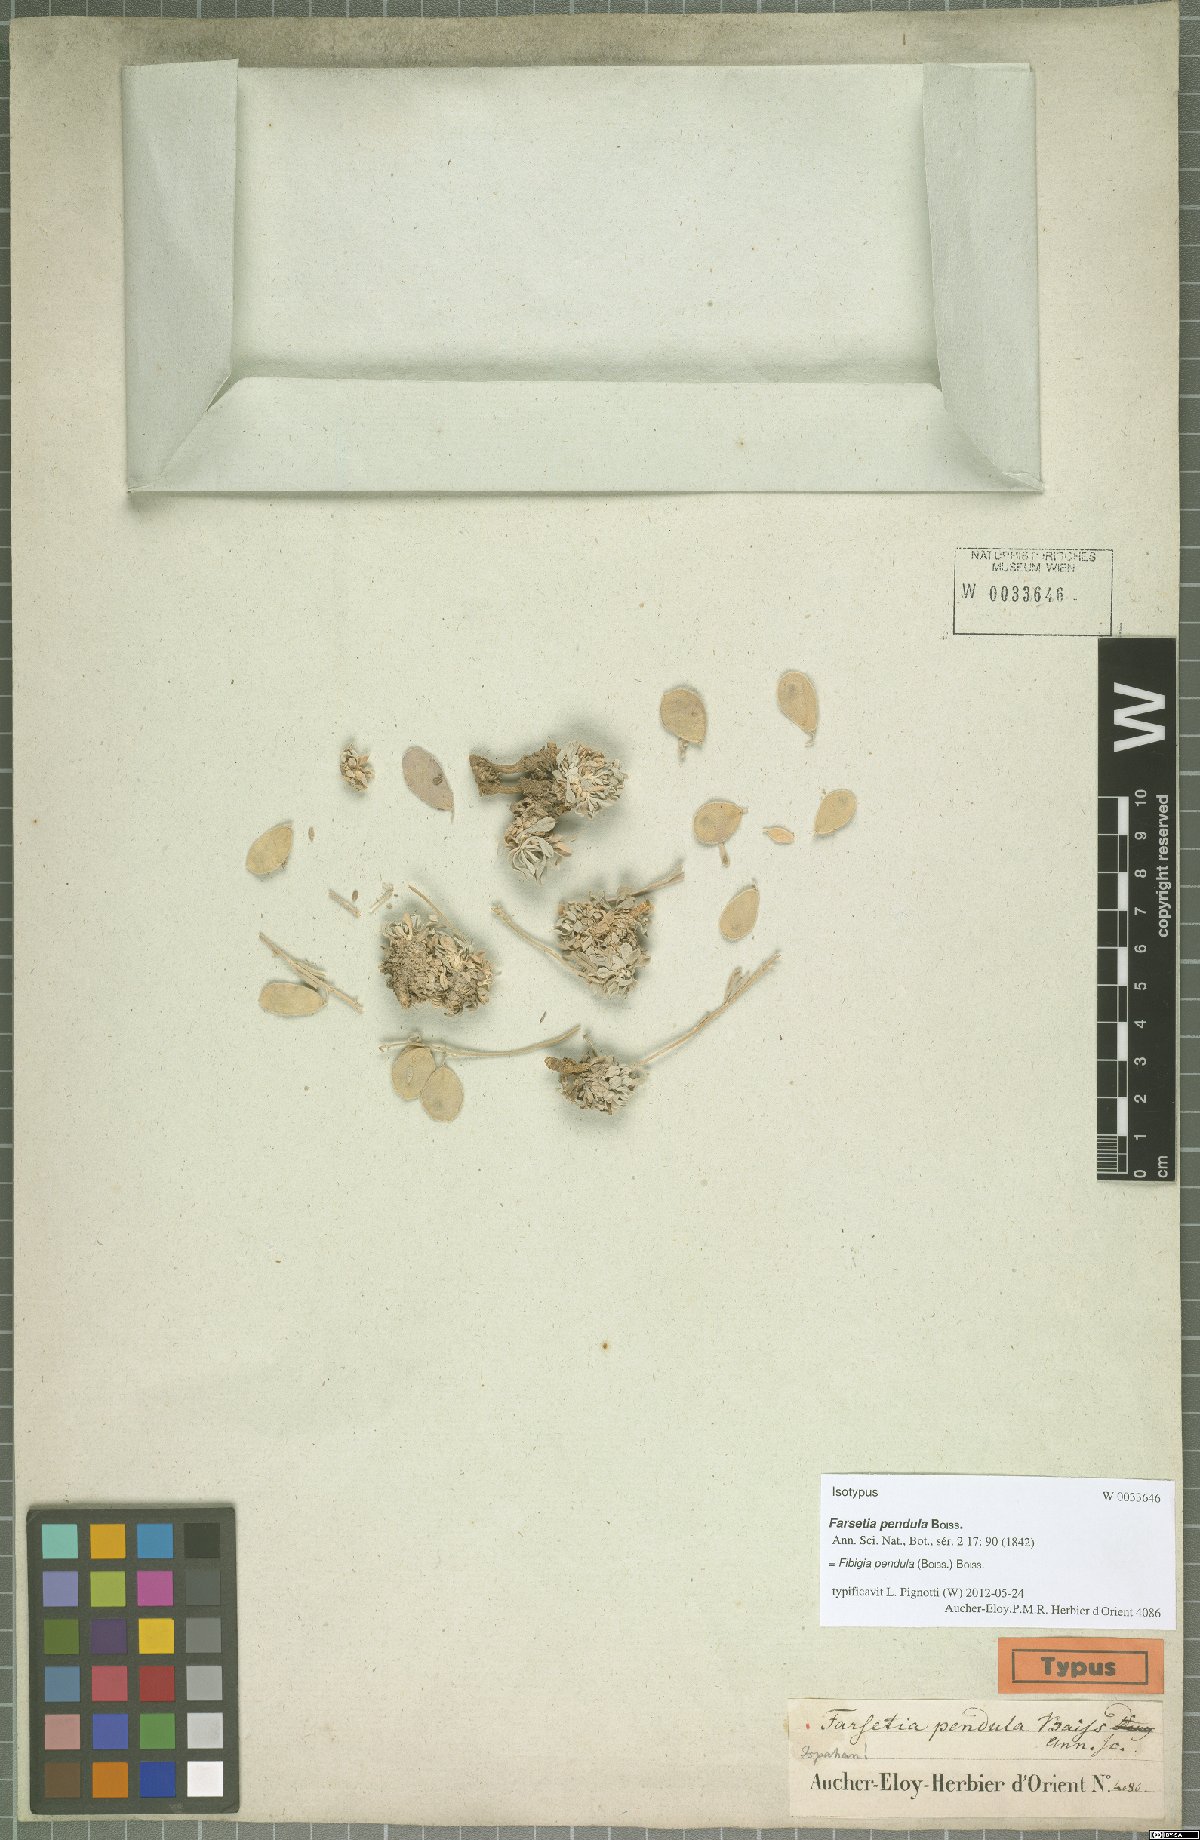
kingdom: Plantae
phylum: Tracheophyta
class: Magnoliopsida
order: Brassicales
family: Brassicaceae
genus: Irania
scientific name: Irania pendula
